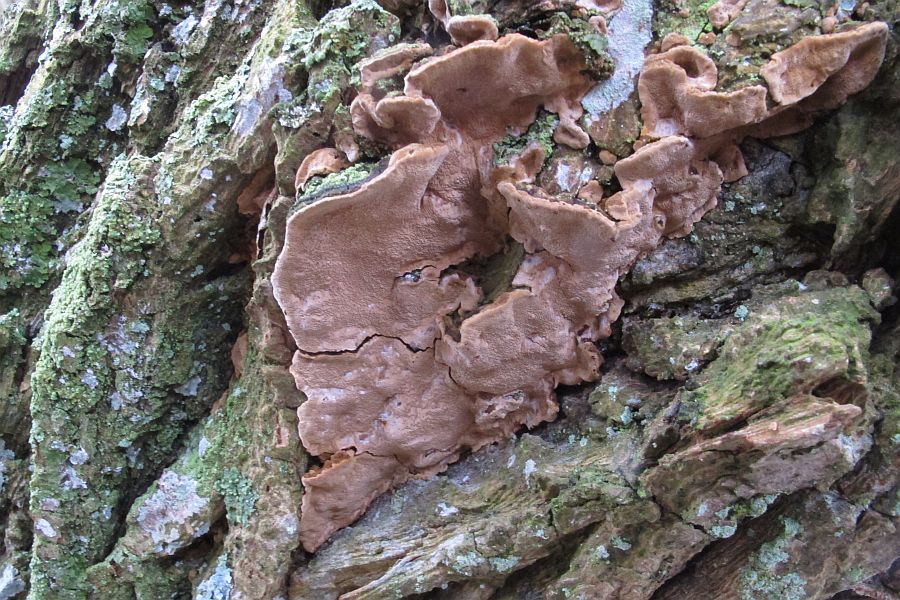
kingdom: Fungi
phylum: Basidiomycota
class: Agaricomycetes
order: Hymenochaetales
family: Hymenochaetaceae
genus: Phellinopsis
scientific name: Phellinopsis conchata
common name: pile-ildporesvamp
